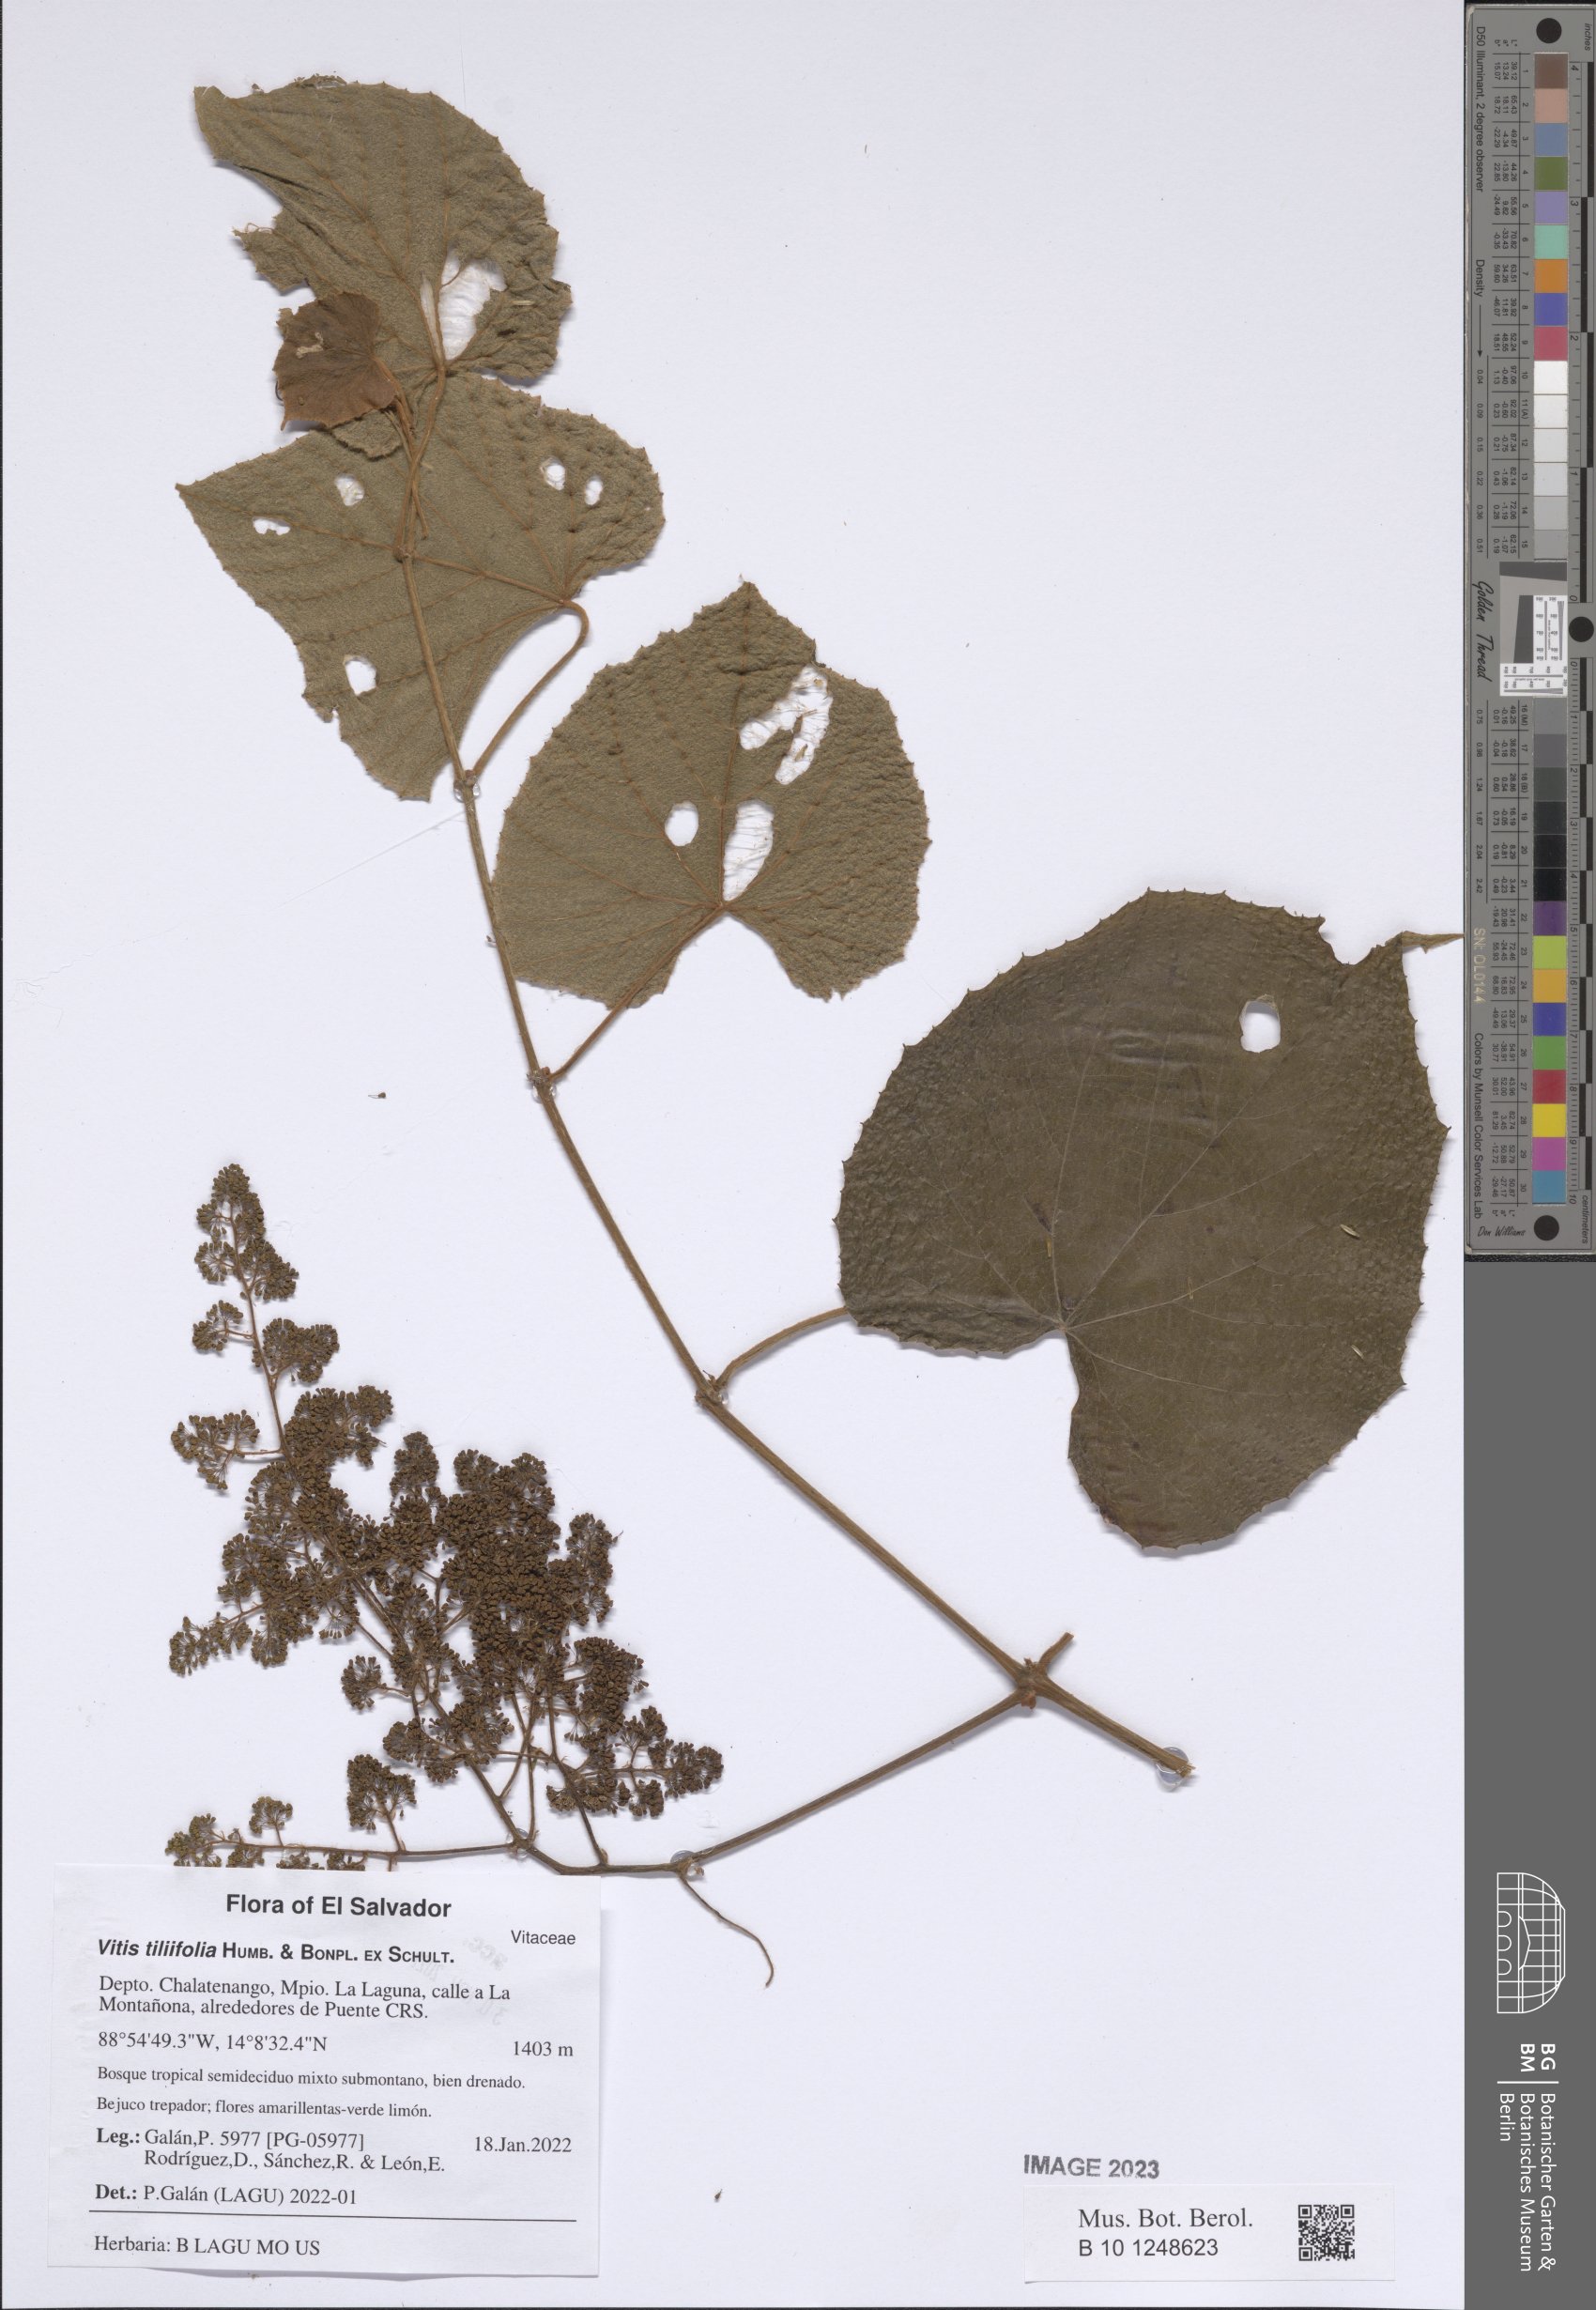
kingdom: Plantae
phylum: Tracheophyta
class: Magnoliopsida
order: Vitales
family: Vitaceae
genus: Vitis
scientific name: Vitis tiliifolia
